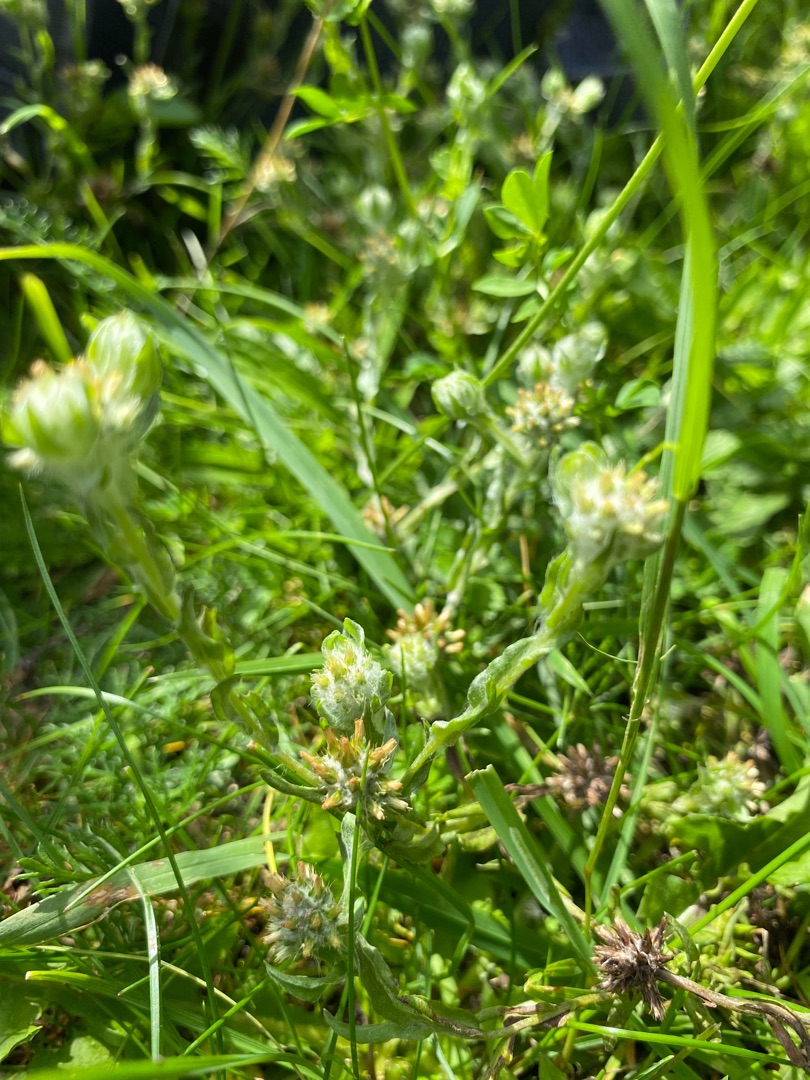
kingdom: Plantae
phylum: Tracheophyta
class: Magnoliopsida
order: Asterales
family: Asteraceae
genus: Filago
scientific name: Filago germanica
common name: Kugle-museurt
